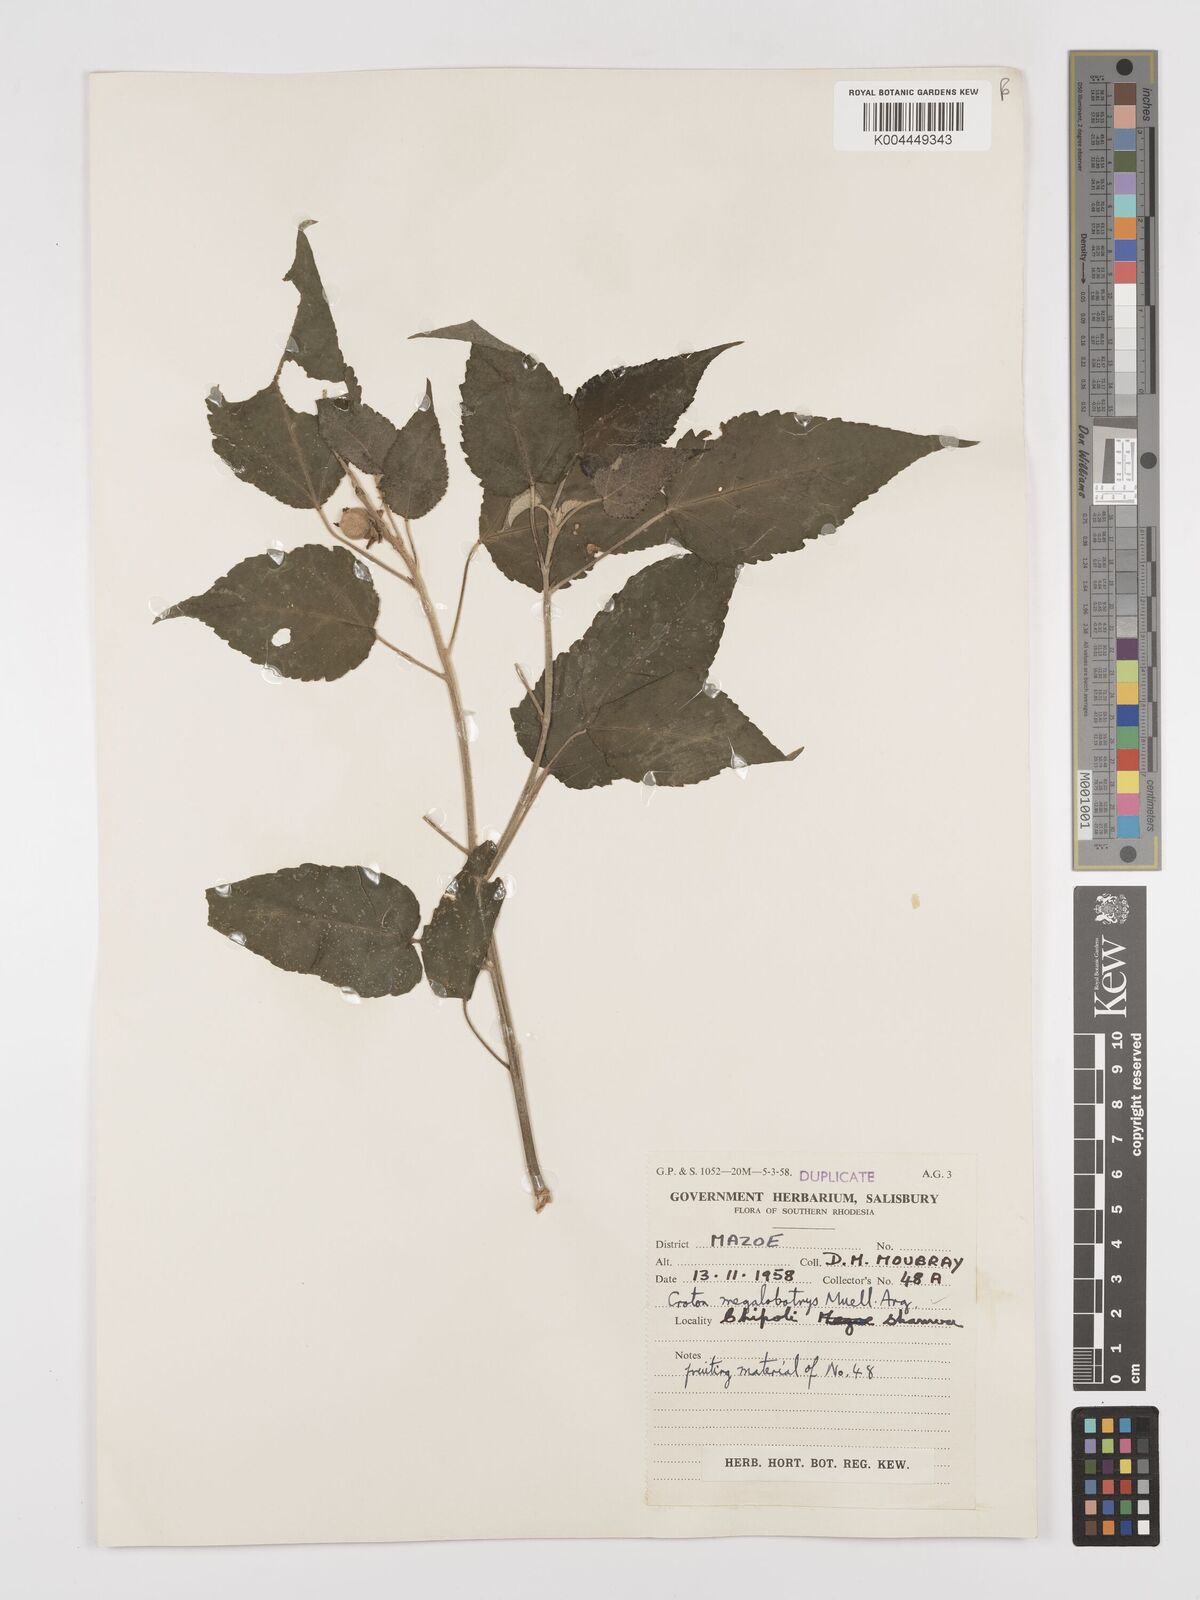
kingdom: Plantae
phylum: Tracheophyta
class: Magnoliopsida
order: Malpighiales
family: Euphorbiaceae
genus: Croton
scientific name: Croton megalobotrys
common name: Large fever berry
